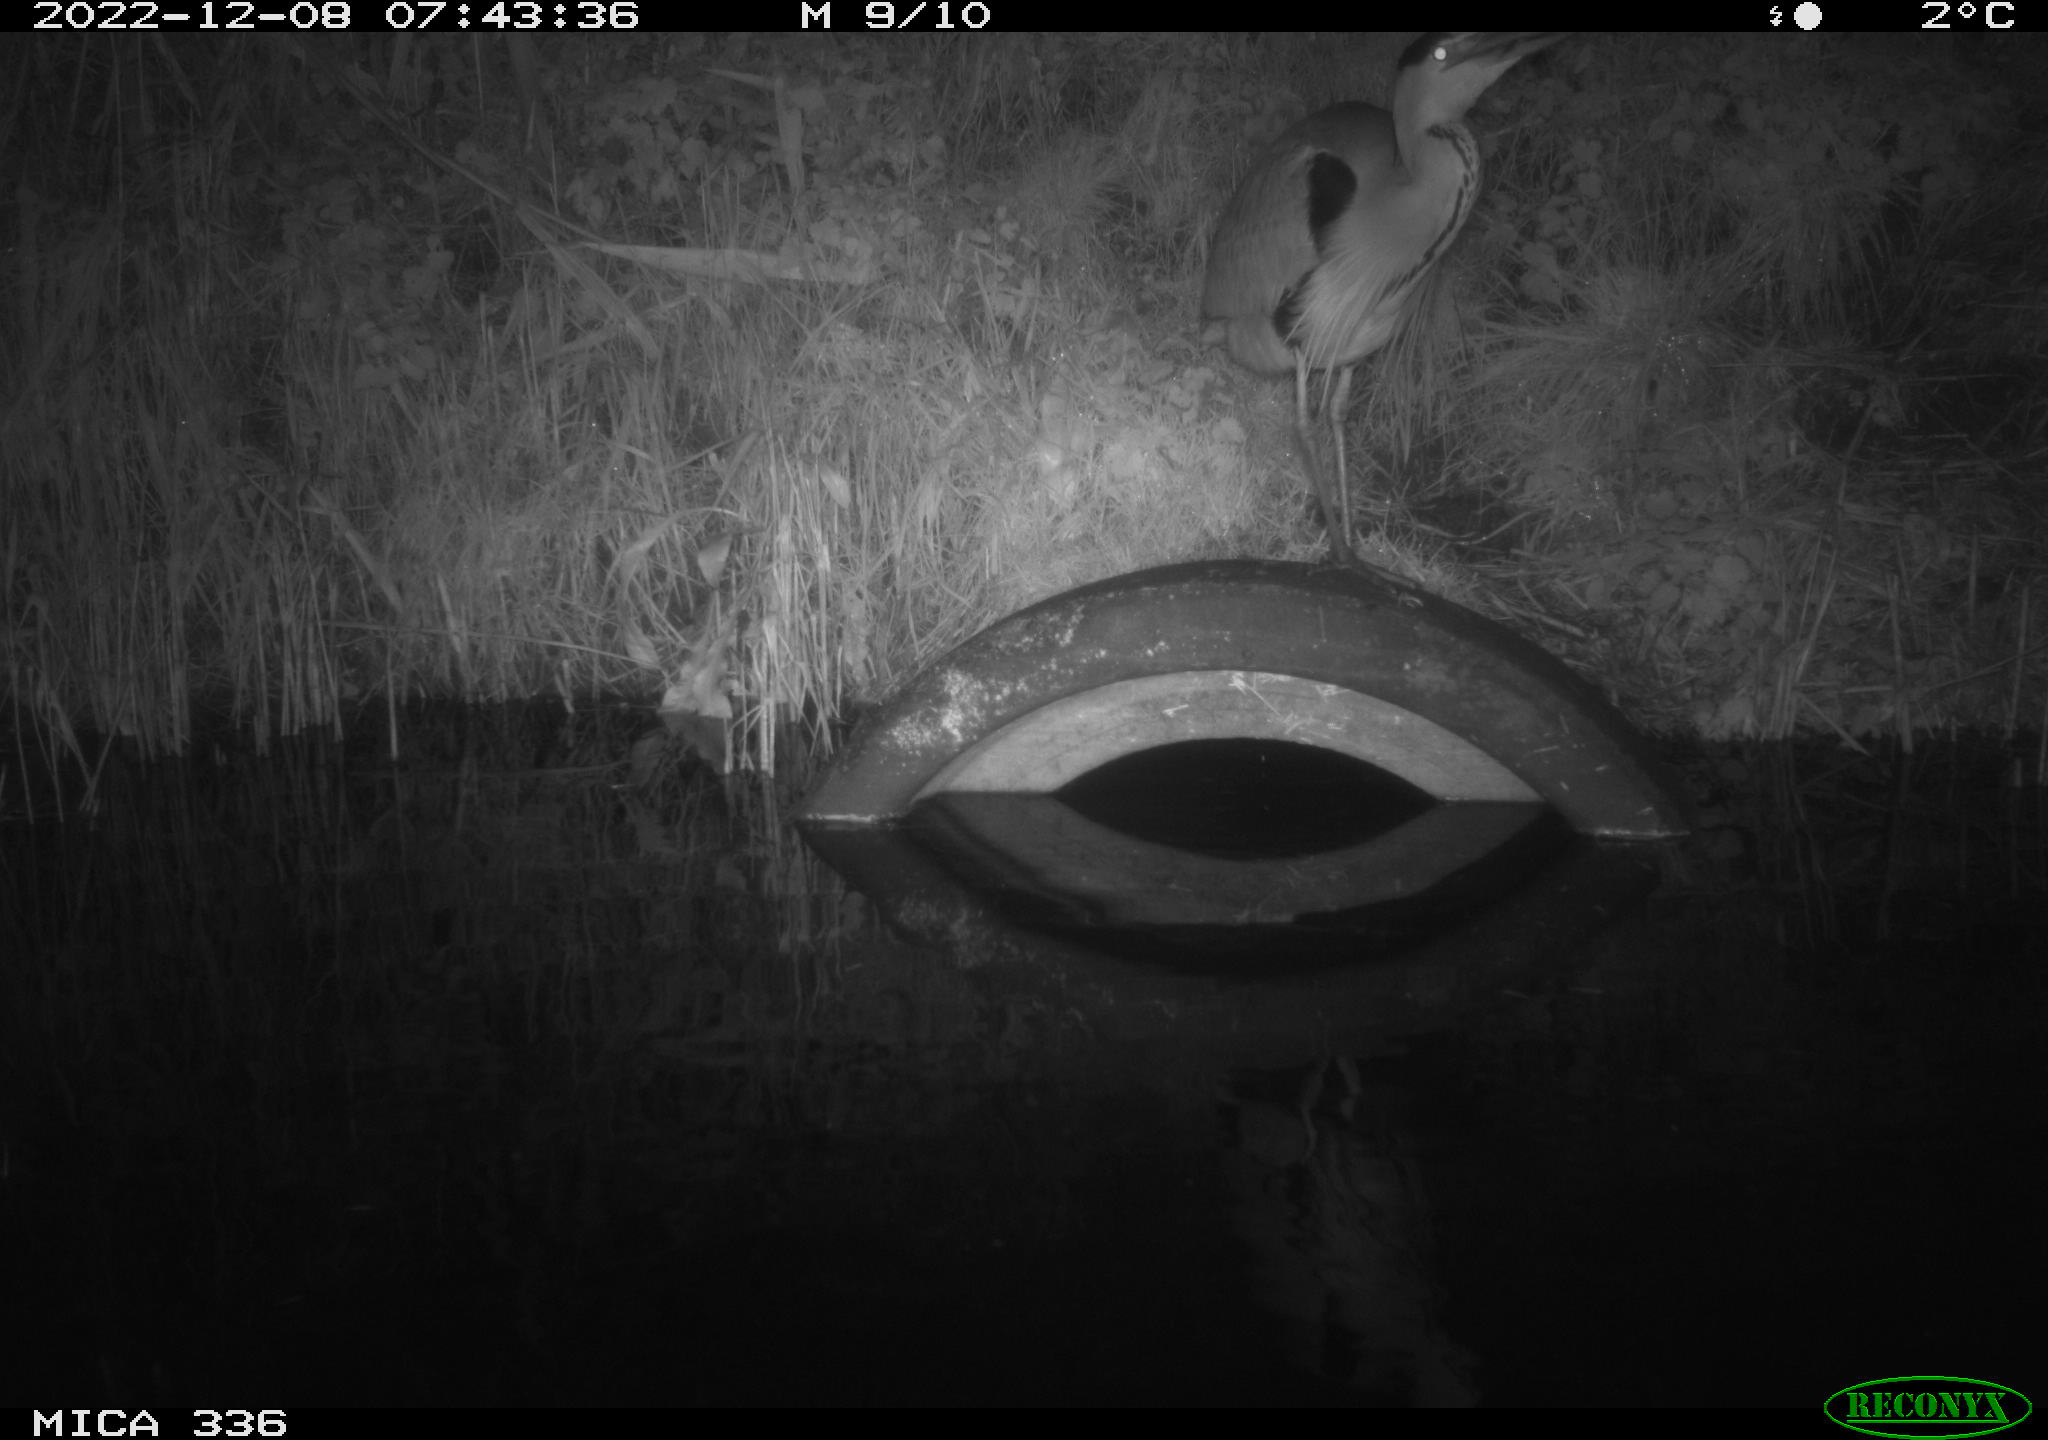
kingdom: Animalia
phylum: Chordata
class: Aves
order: Pelecaniformes
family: Ardeidae
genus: Ardea
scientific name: Ardea cinerea
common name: Grey heron
